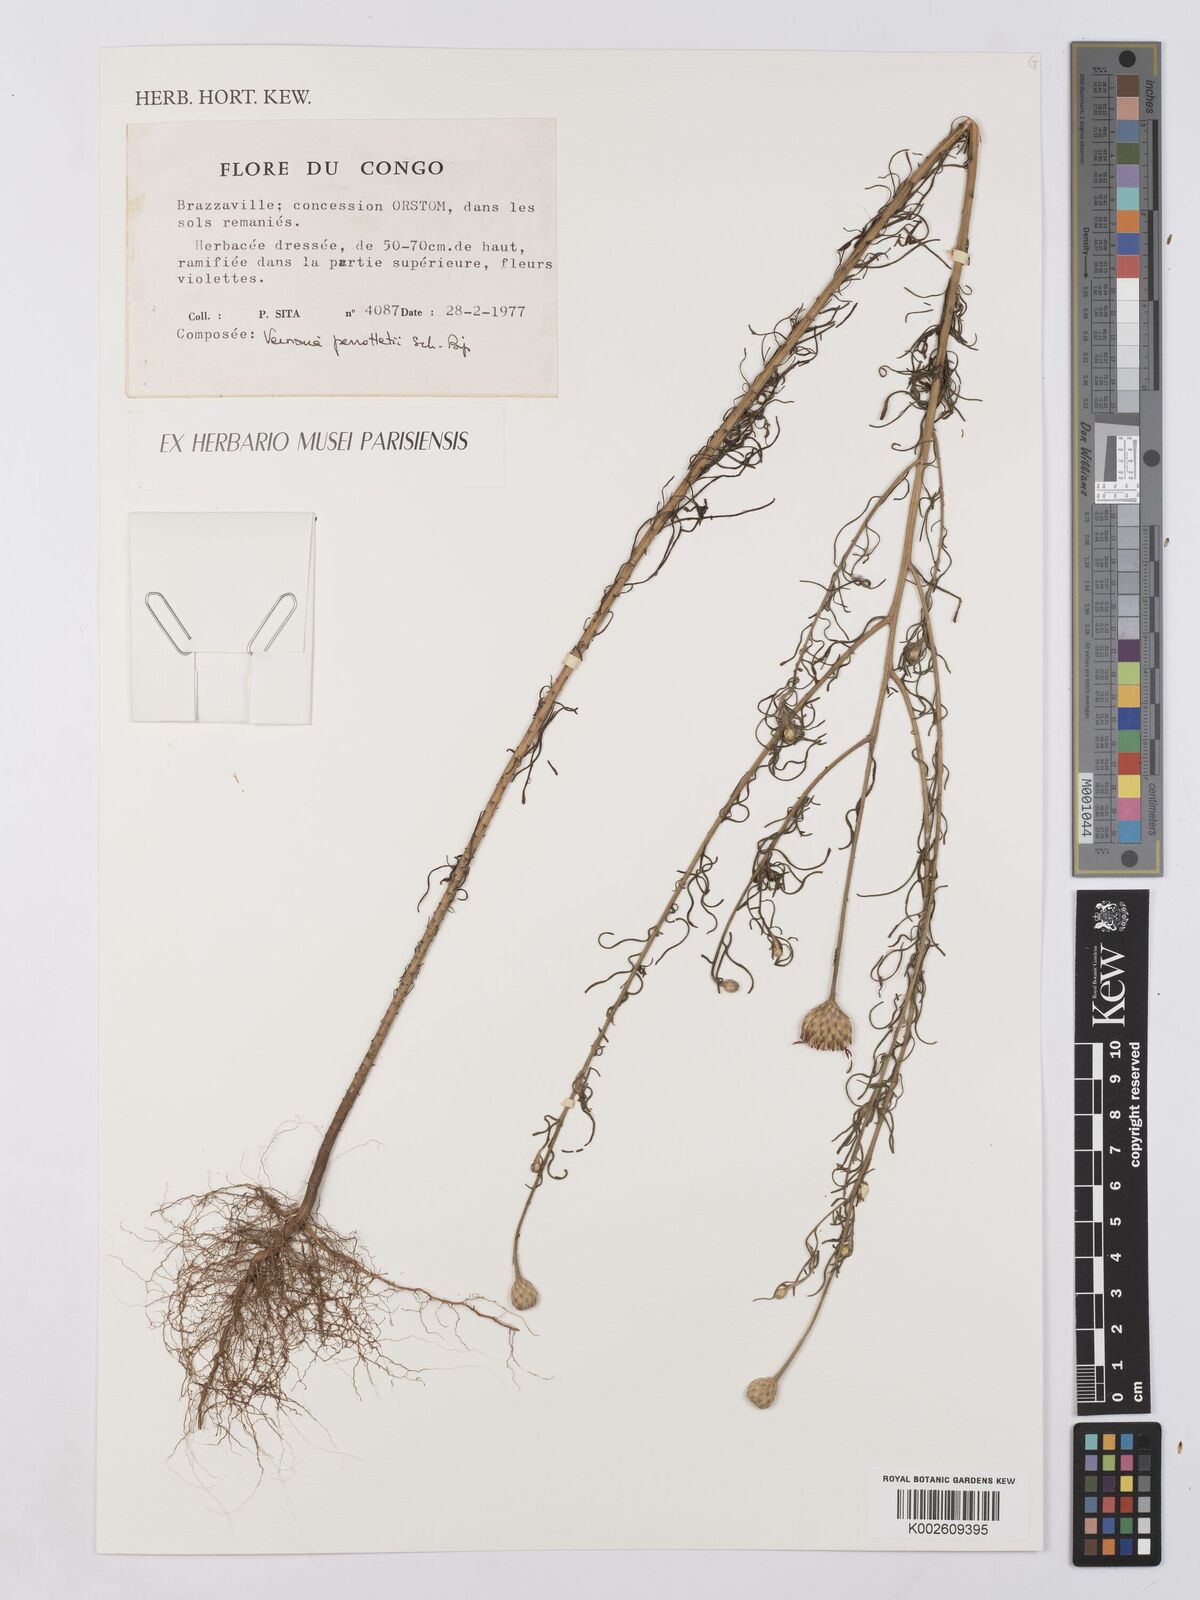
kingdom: Plantae
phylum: Tracheophyta
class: Magnoliopsida
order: Asterales
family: Asteraceae
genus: Crystallopollen
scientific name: Crystallopollen serratuloides
